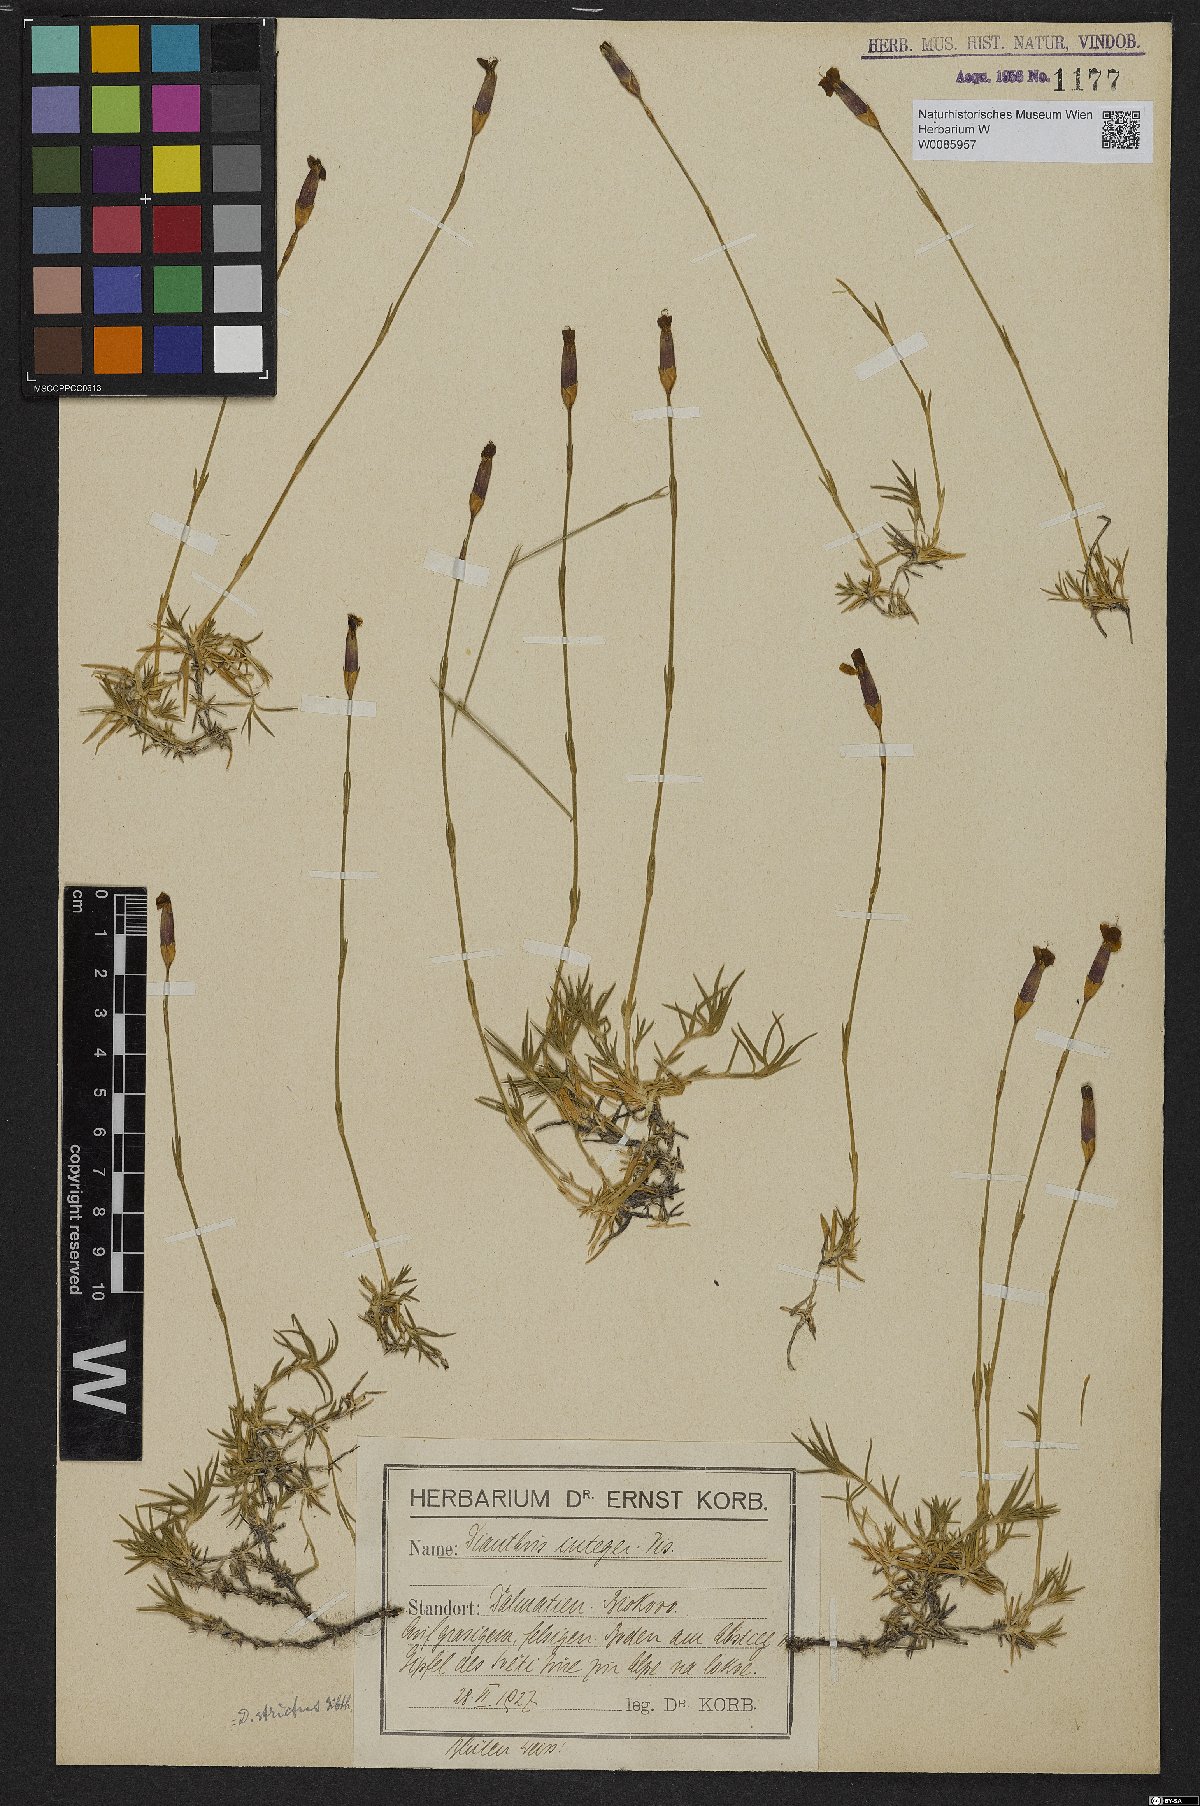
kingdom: Plantae
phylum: Tracheophyta
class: Magnoliopsida
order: Caryophyllales
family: Caryophyllaceae
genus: Dianthus
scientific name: Dianthus petraeus
